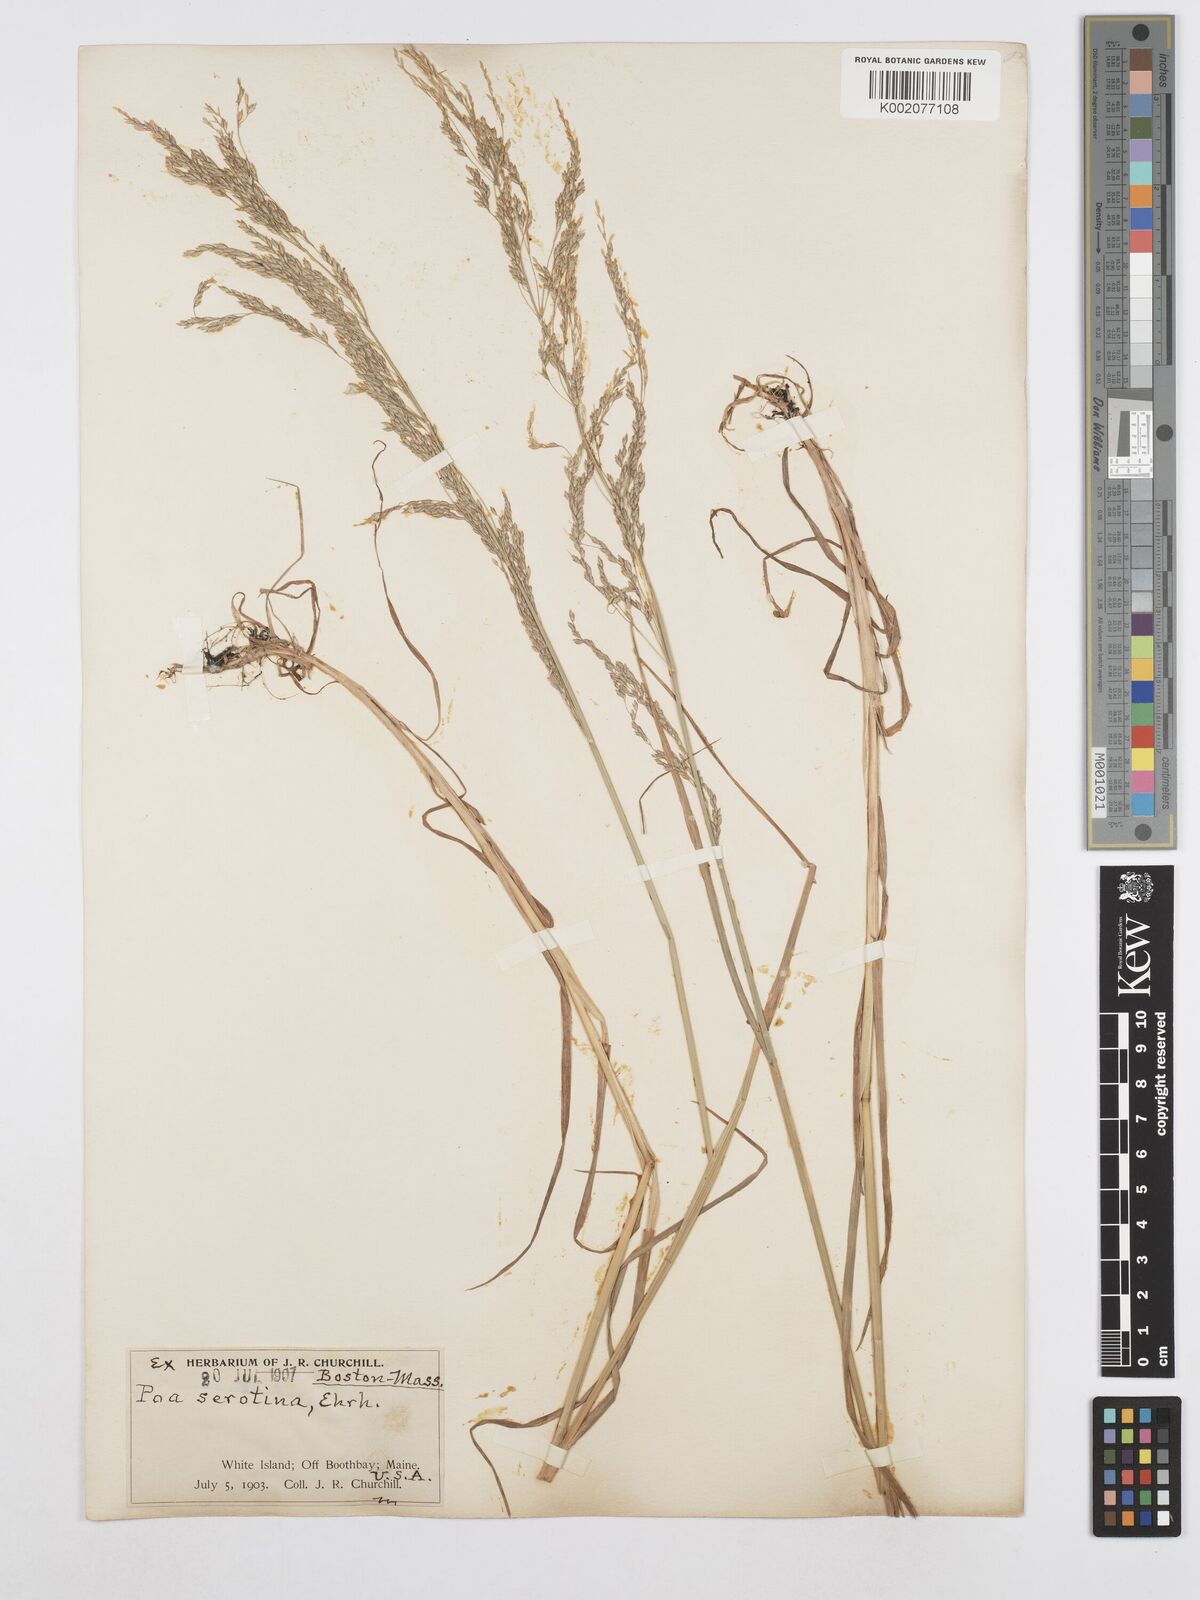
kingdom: Plantae
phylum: Tracheophyta
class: Liliopsida
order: Poales
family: Poaceae
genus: Poa
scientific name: Poa palustris
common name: Swamp meadow-grass
